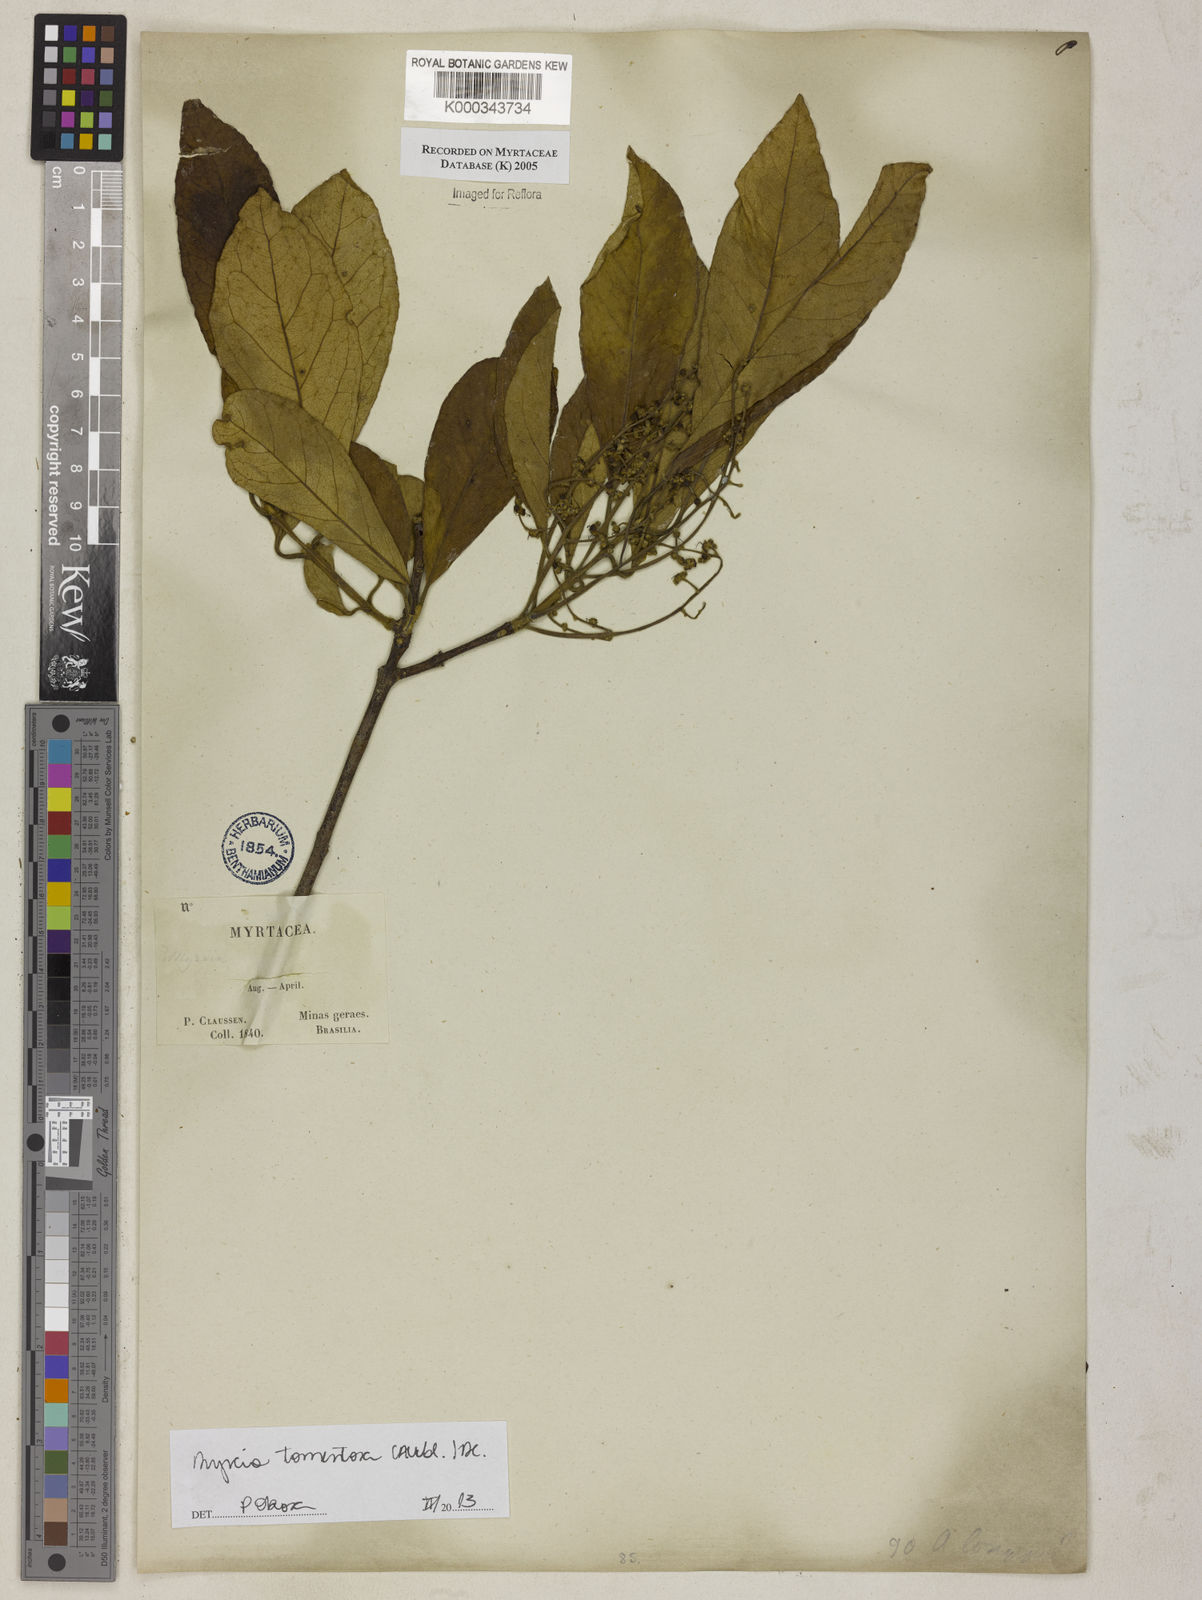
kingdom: Plantae
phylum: Tracheophyta
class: Magnoliopsida
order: Myrtales
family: Myrtaceae
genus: Myrcia
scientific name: Myrcia tomentosa
